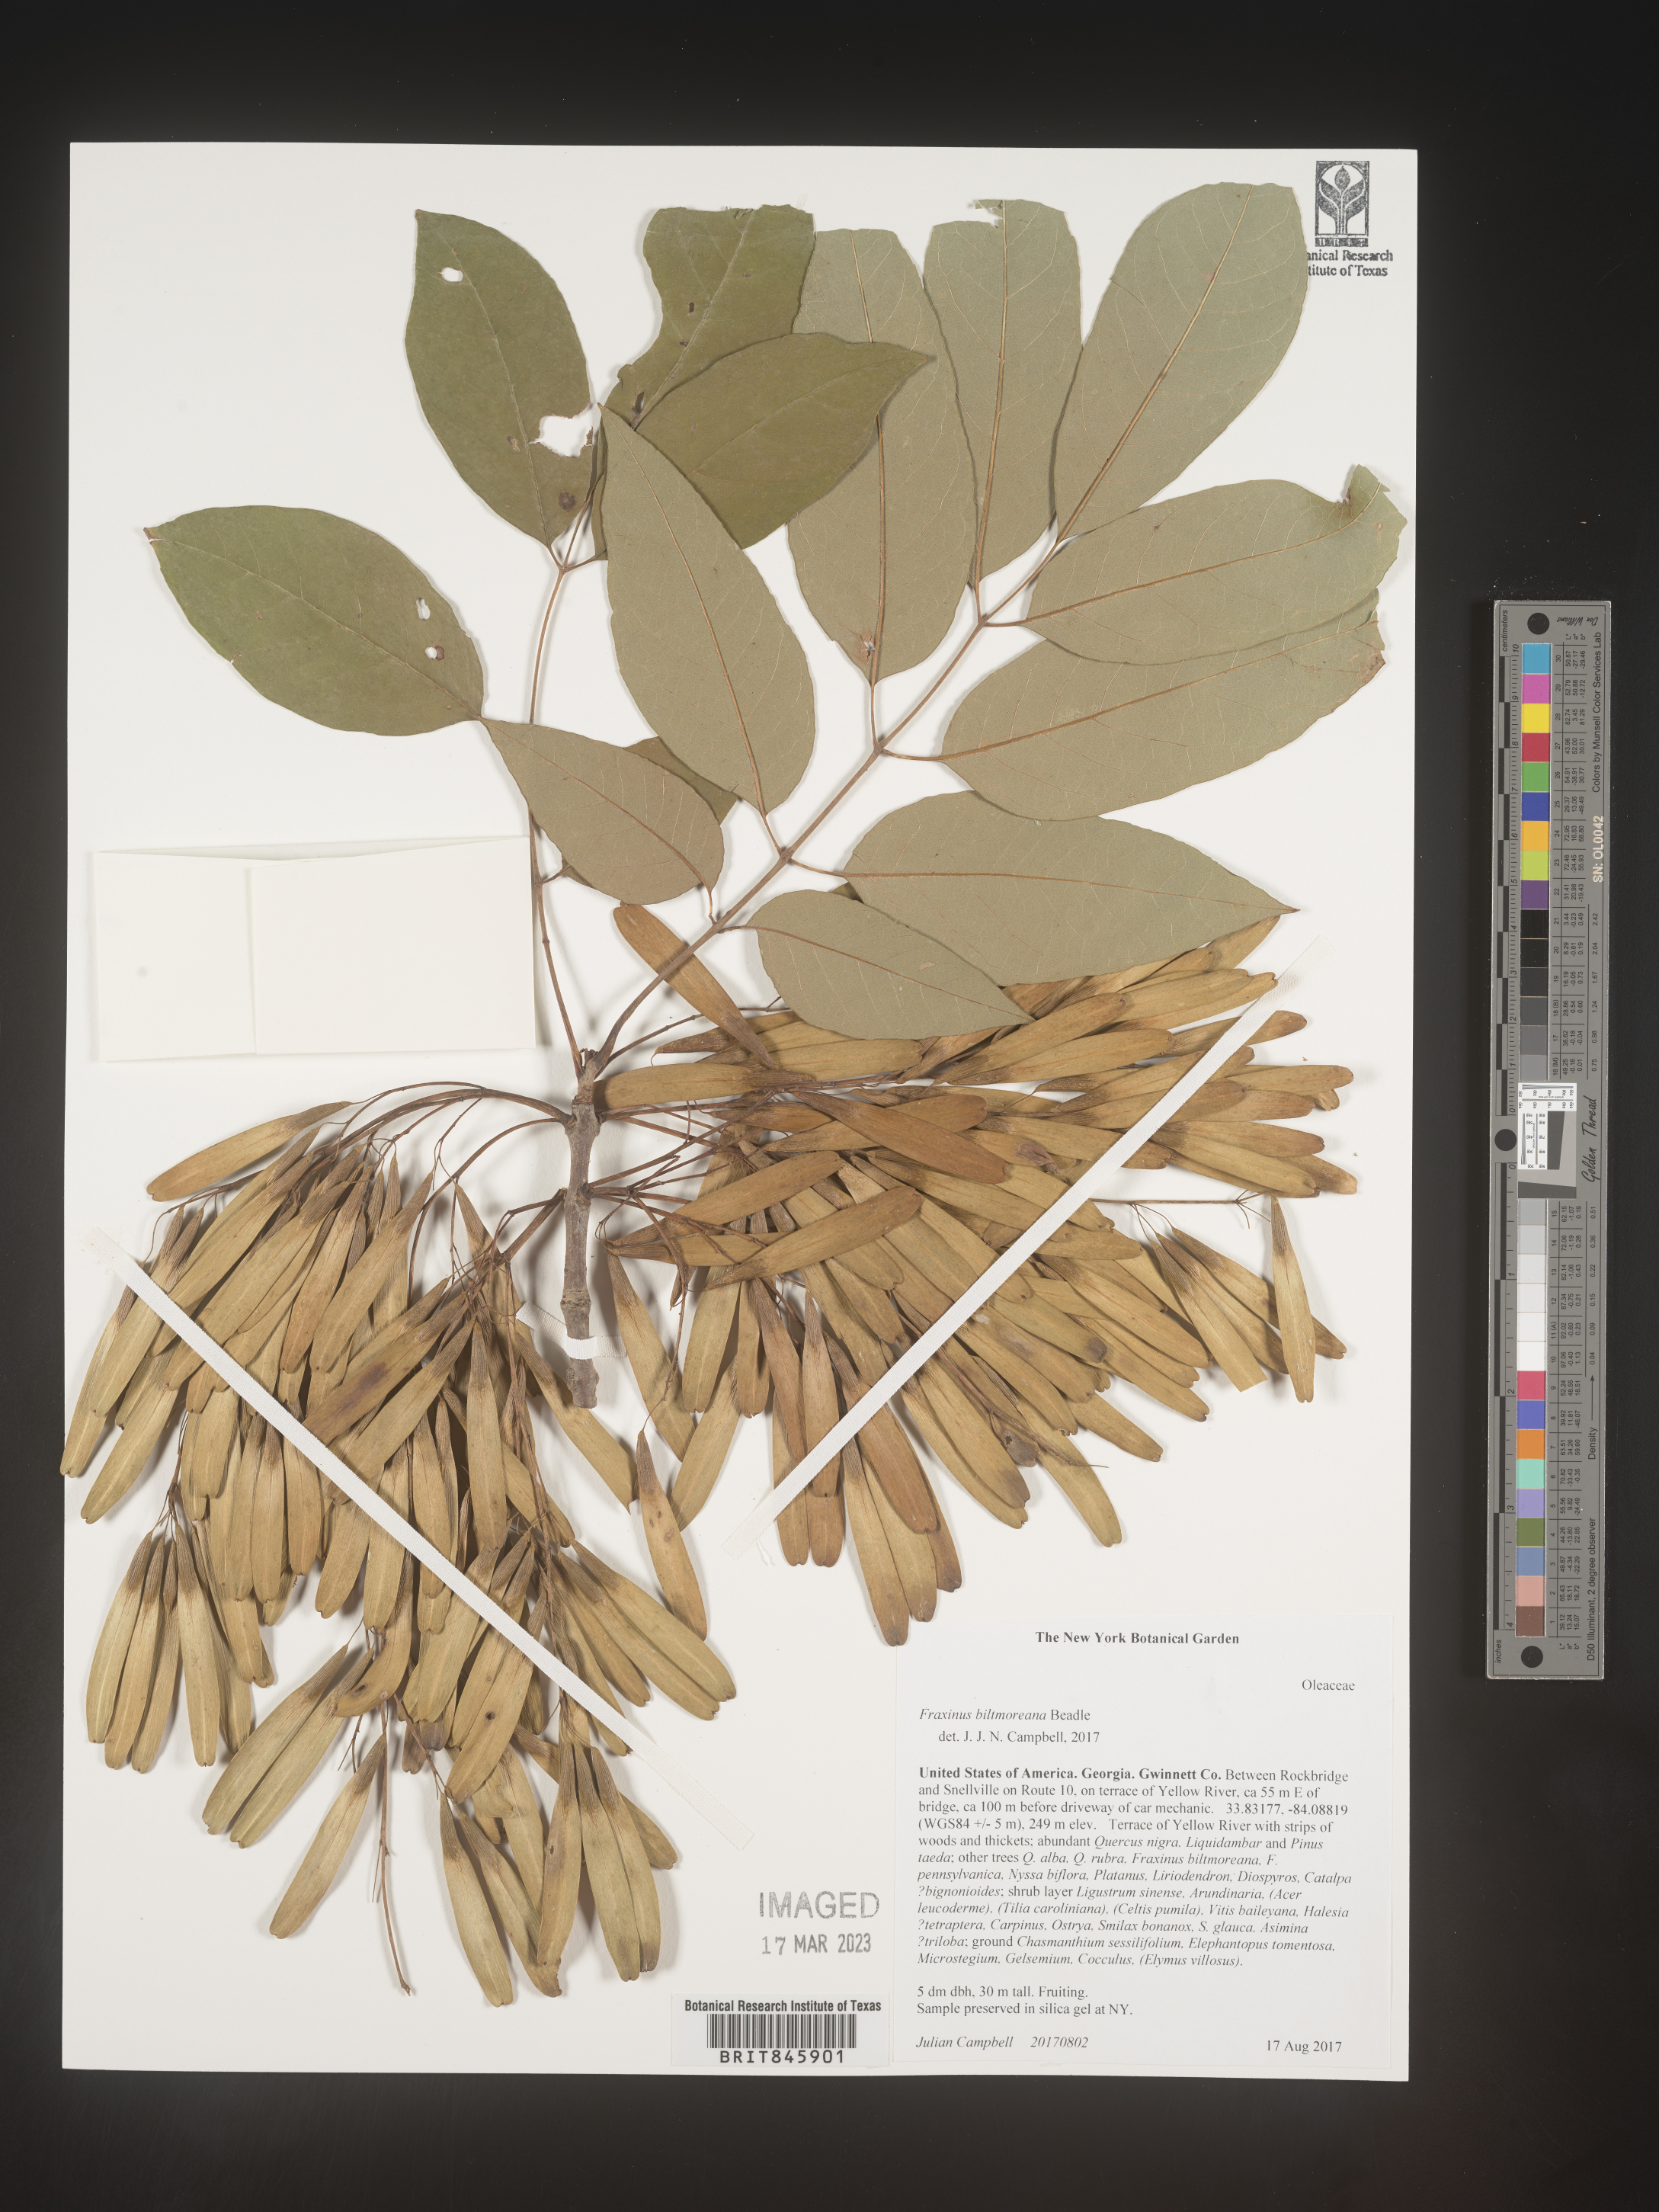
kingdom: Plantae
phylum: Tracheophyta
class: Magnoliopsida
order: Lamiales
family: Oleaceae
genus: Fraxinus
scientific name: Fraxinus americana
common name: White ash
